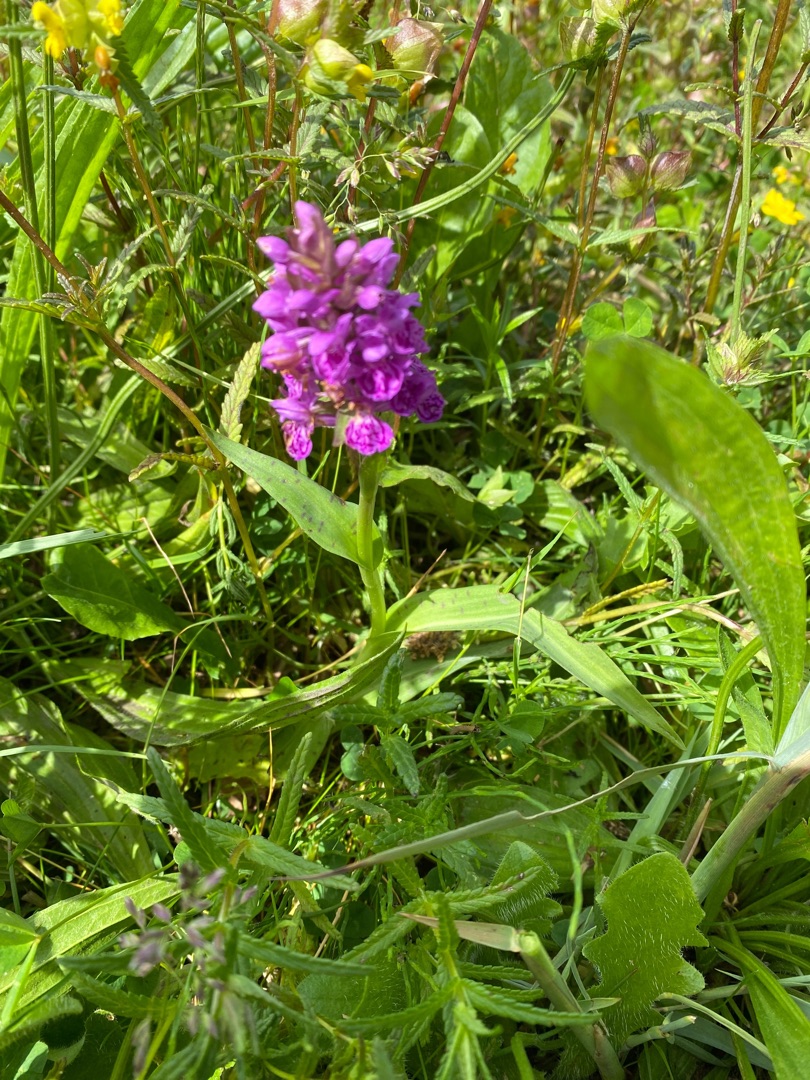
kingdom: Plantae
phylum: Tracheophyta
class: Liliopsida
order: Asparagales
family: Orchidaceae
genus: Dactylorhiza
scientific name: Dactylorhiza majalis
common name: Vendsyssel-gøgeurt
